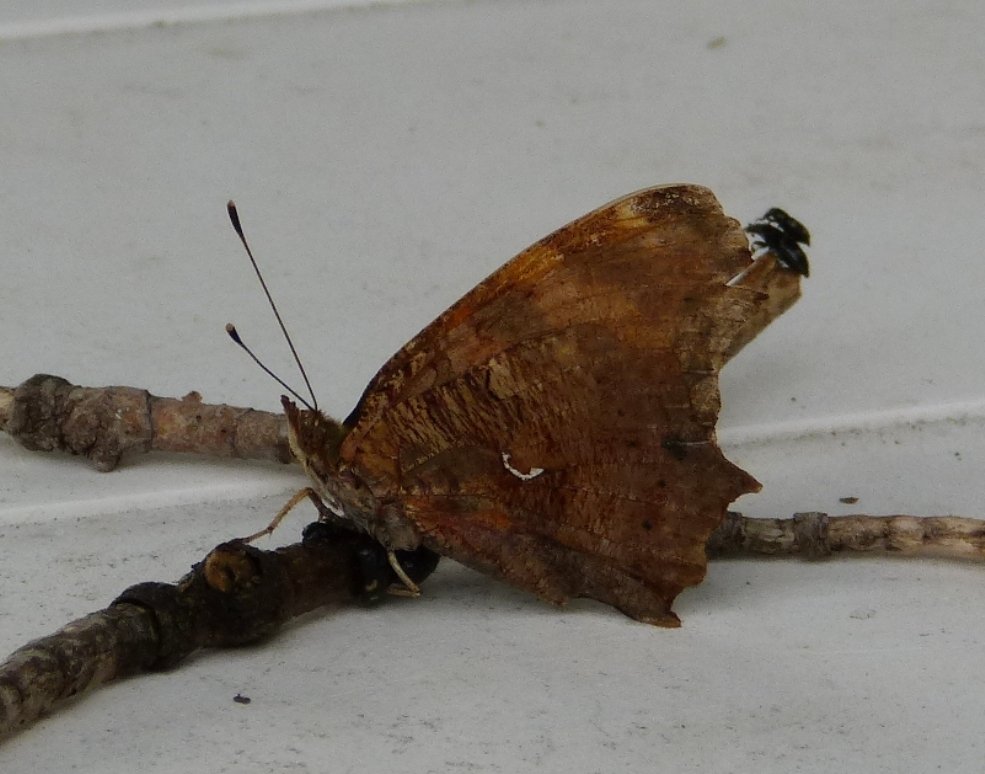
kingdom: Animalia
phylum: Arthropoda
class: Insecta
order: Lepidoptera
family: Nymphalidae
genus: Polygonia
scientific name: Polygonia comma
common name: Eastern Comma
